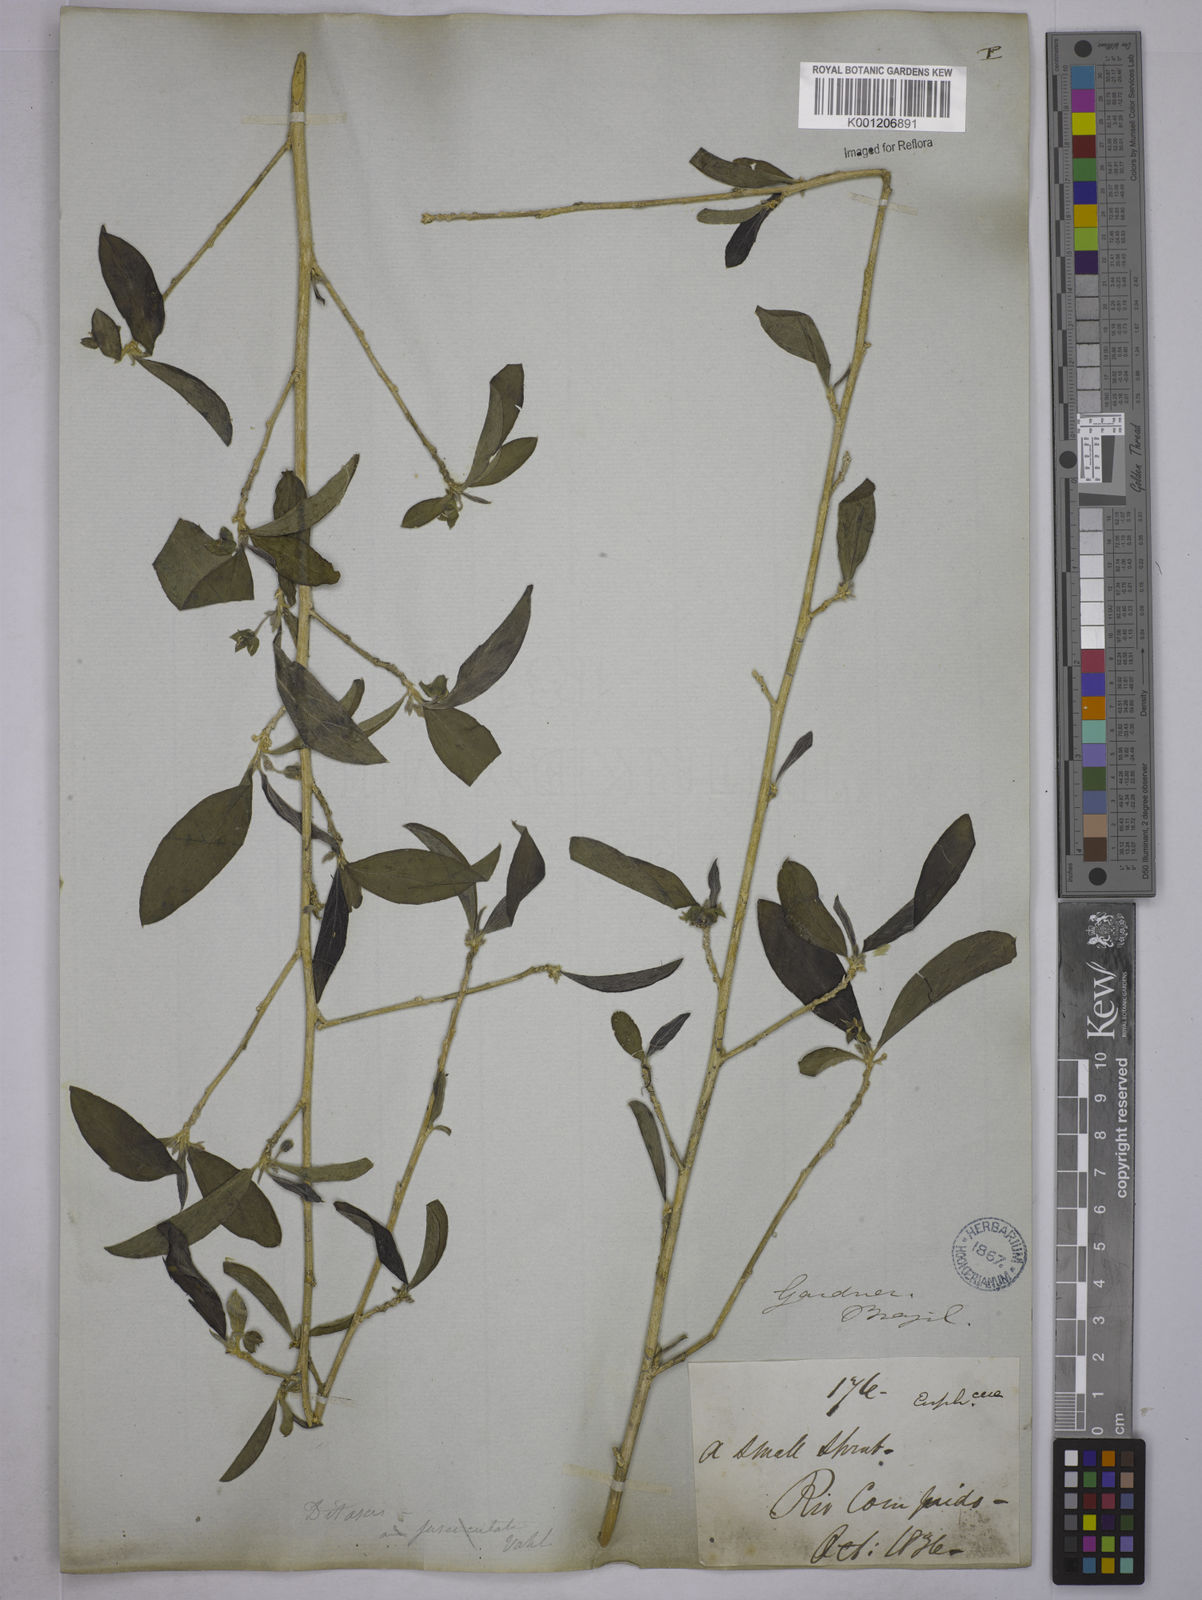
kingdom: Plantae
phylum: Tracheophyta
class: Magnoliopsida
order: Malpighiales
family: Euphorbiaceae
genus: Ditaxis
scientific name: Ditaxis
